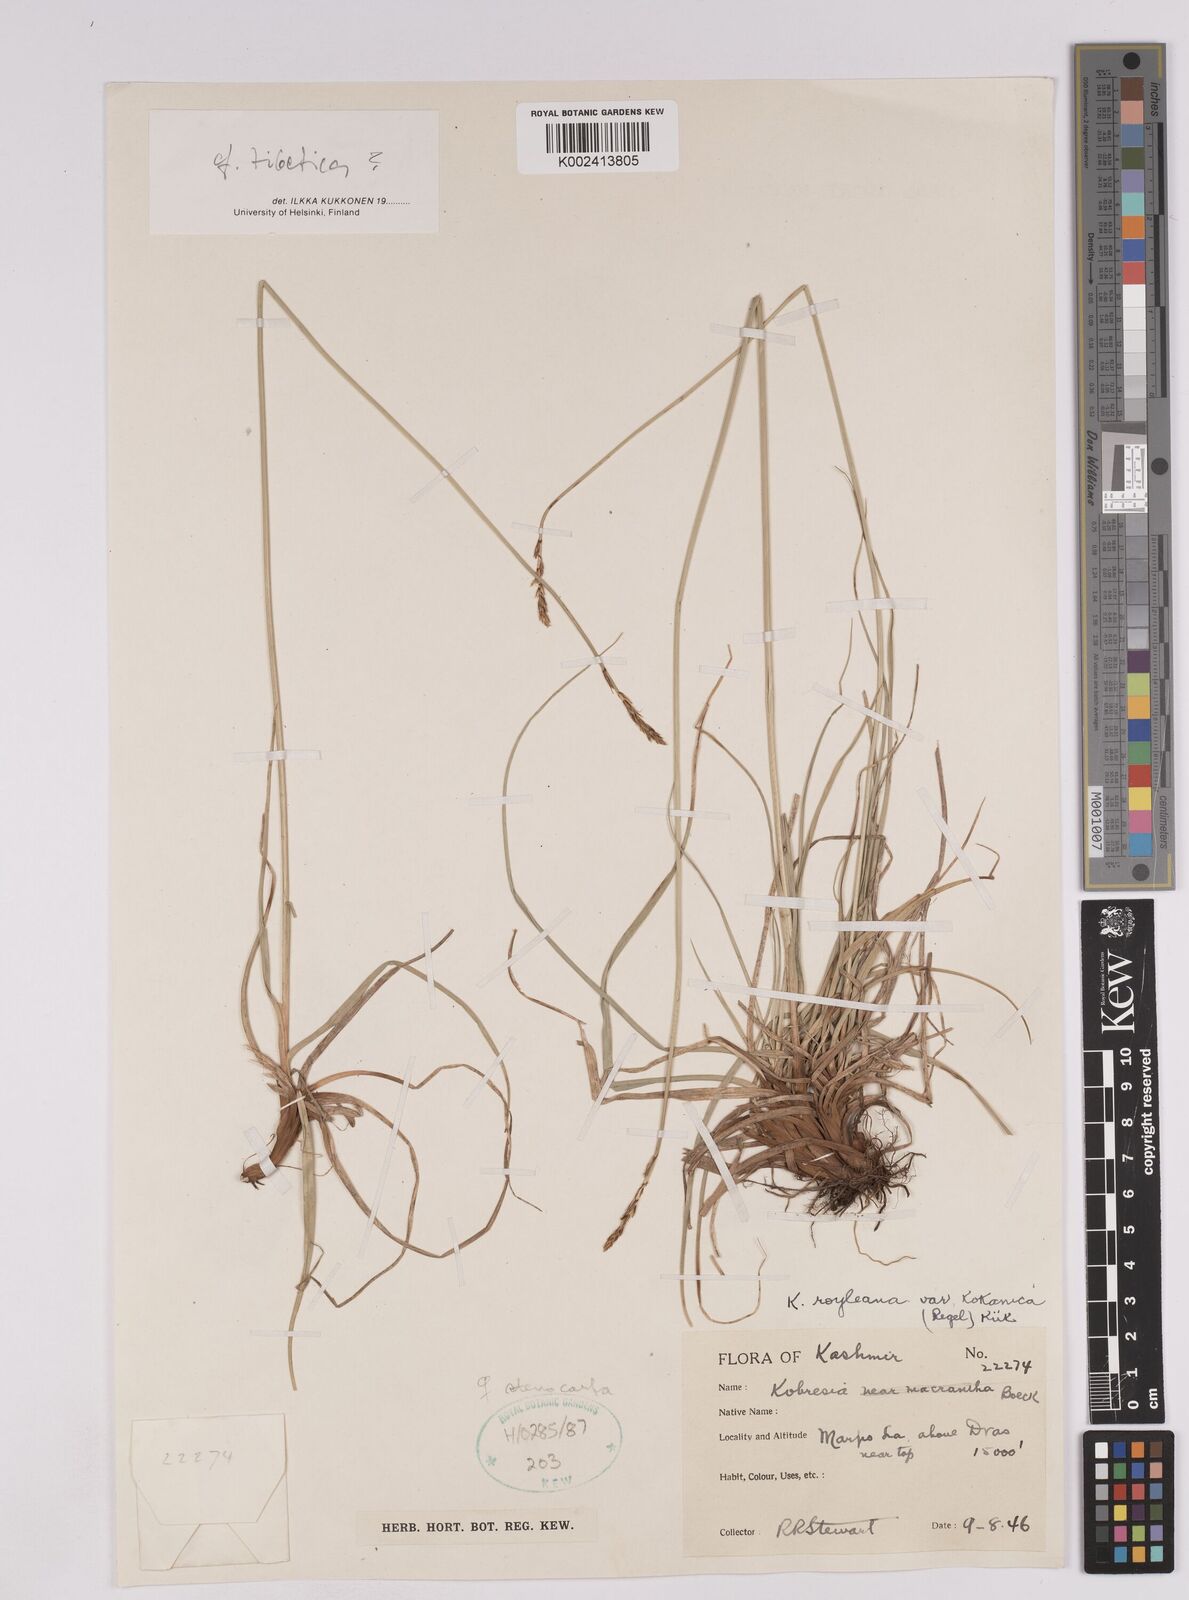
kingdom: Plantae
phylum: Tracheophyta
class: Liliopsida
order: Poales
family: Cyperaceae
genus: Carex
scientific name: Carex kokanica
